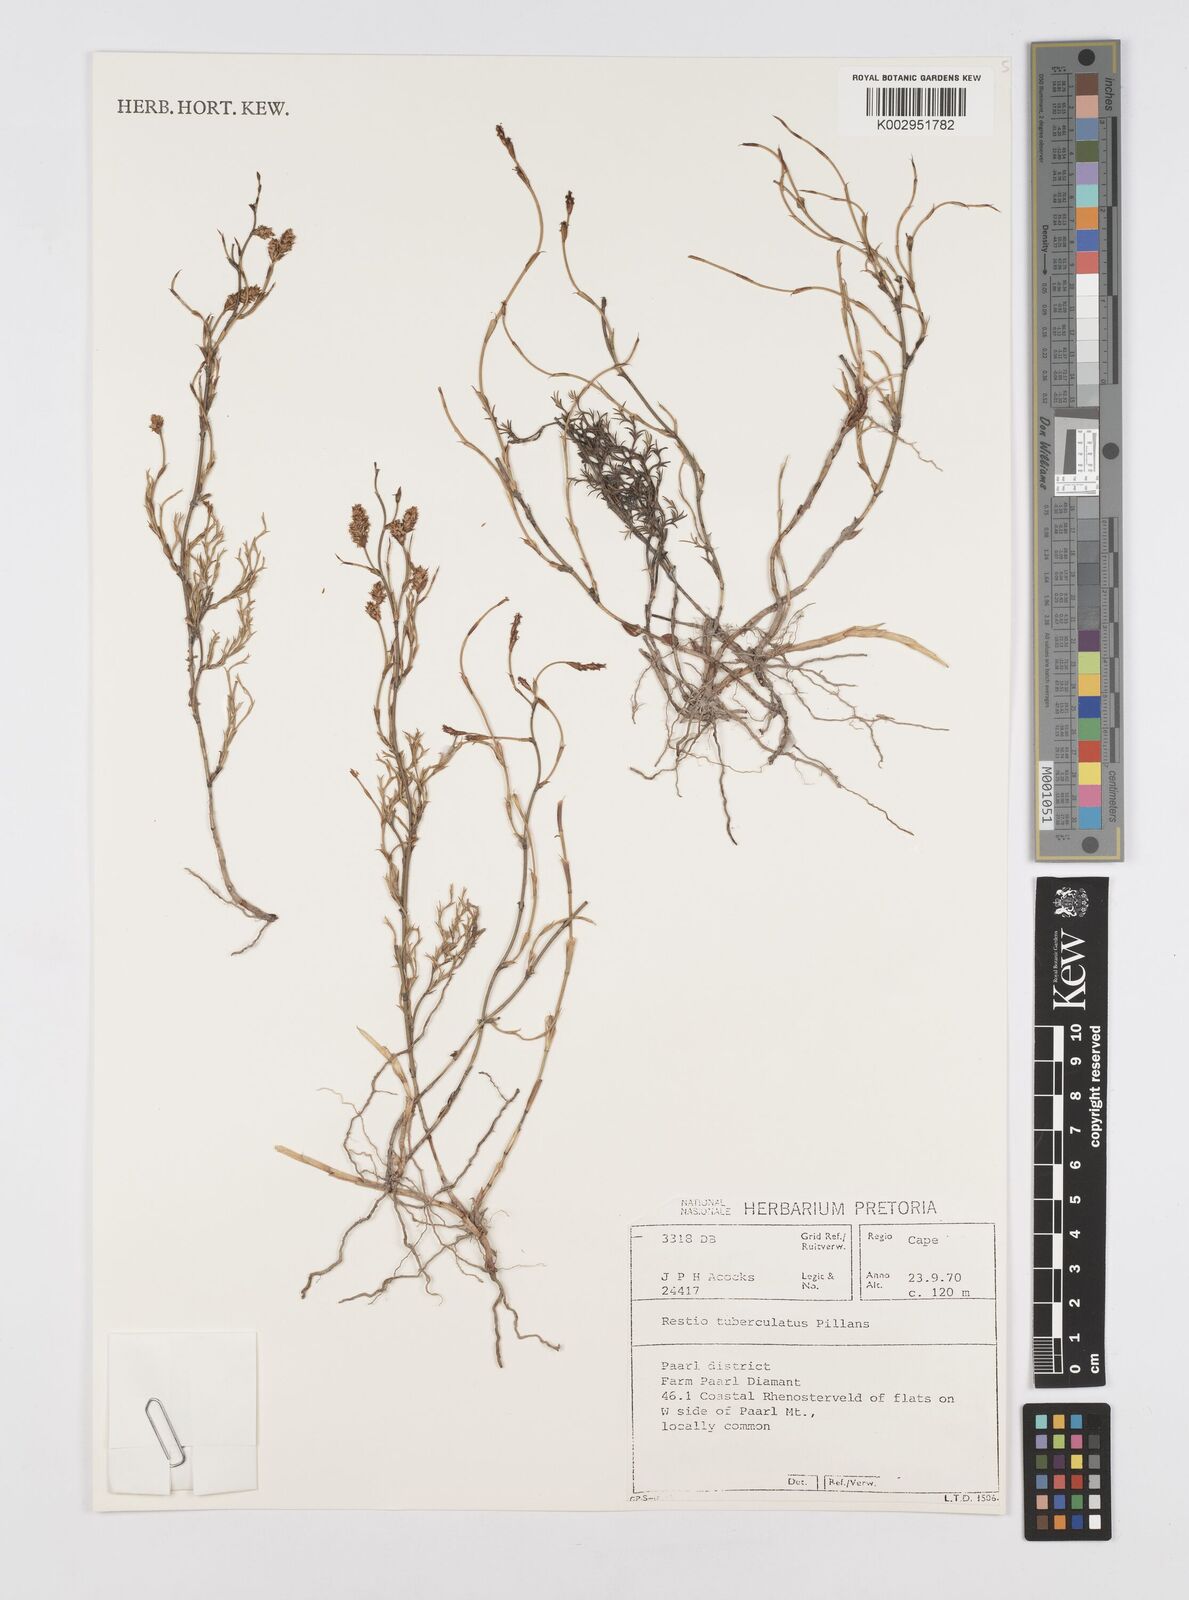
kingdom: Plantae
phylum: Tracheophyta
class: Liliopsida
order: Poales
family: Restionaceae
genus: Restio
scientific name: Restio tuberculatus
